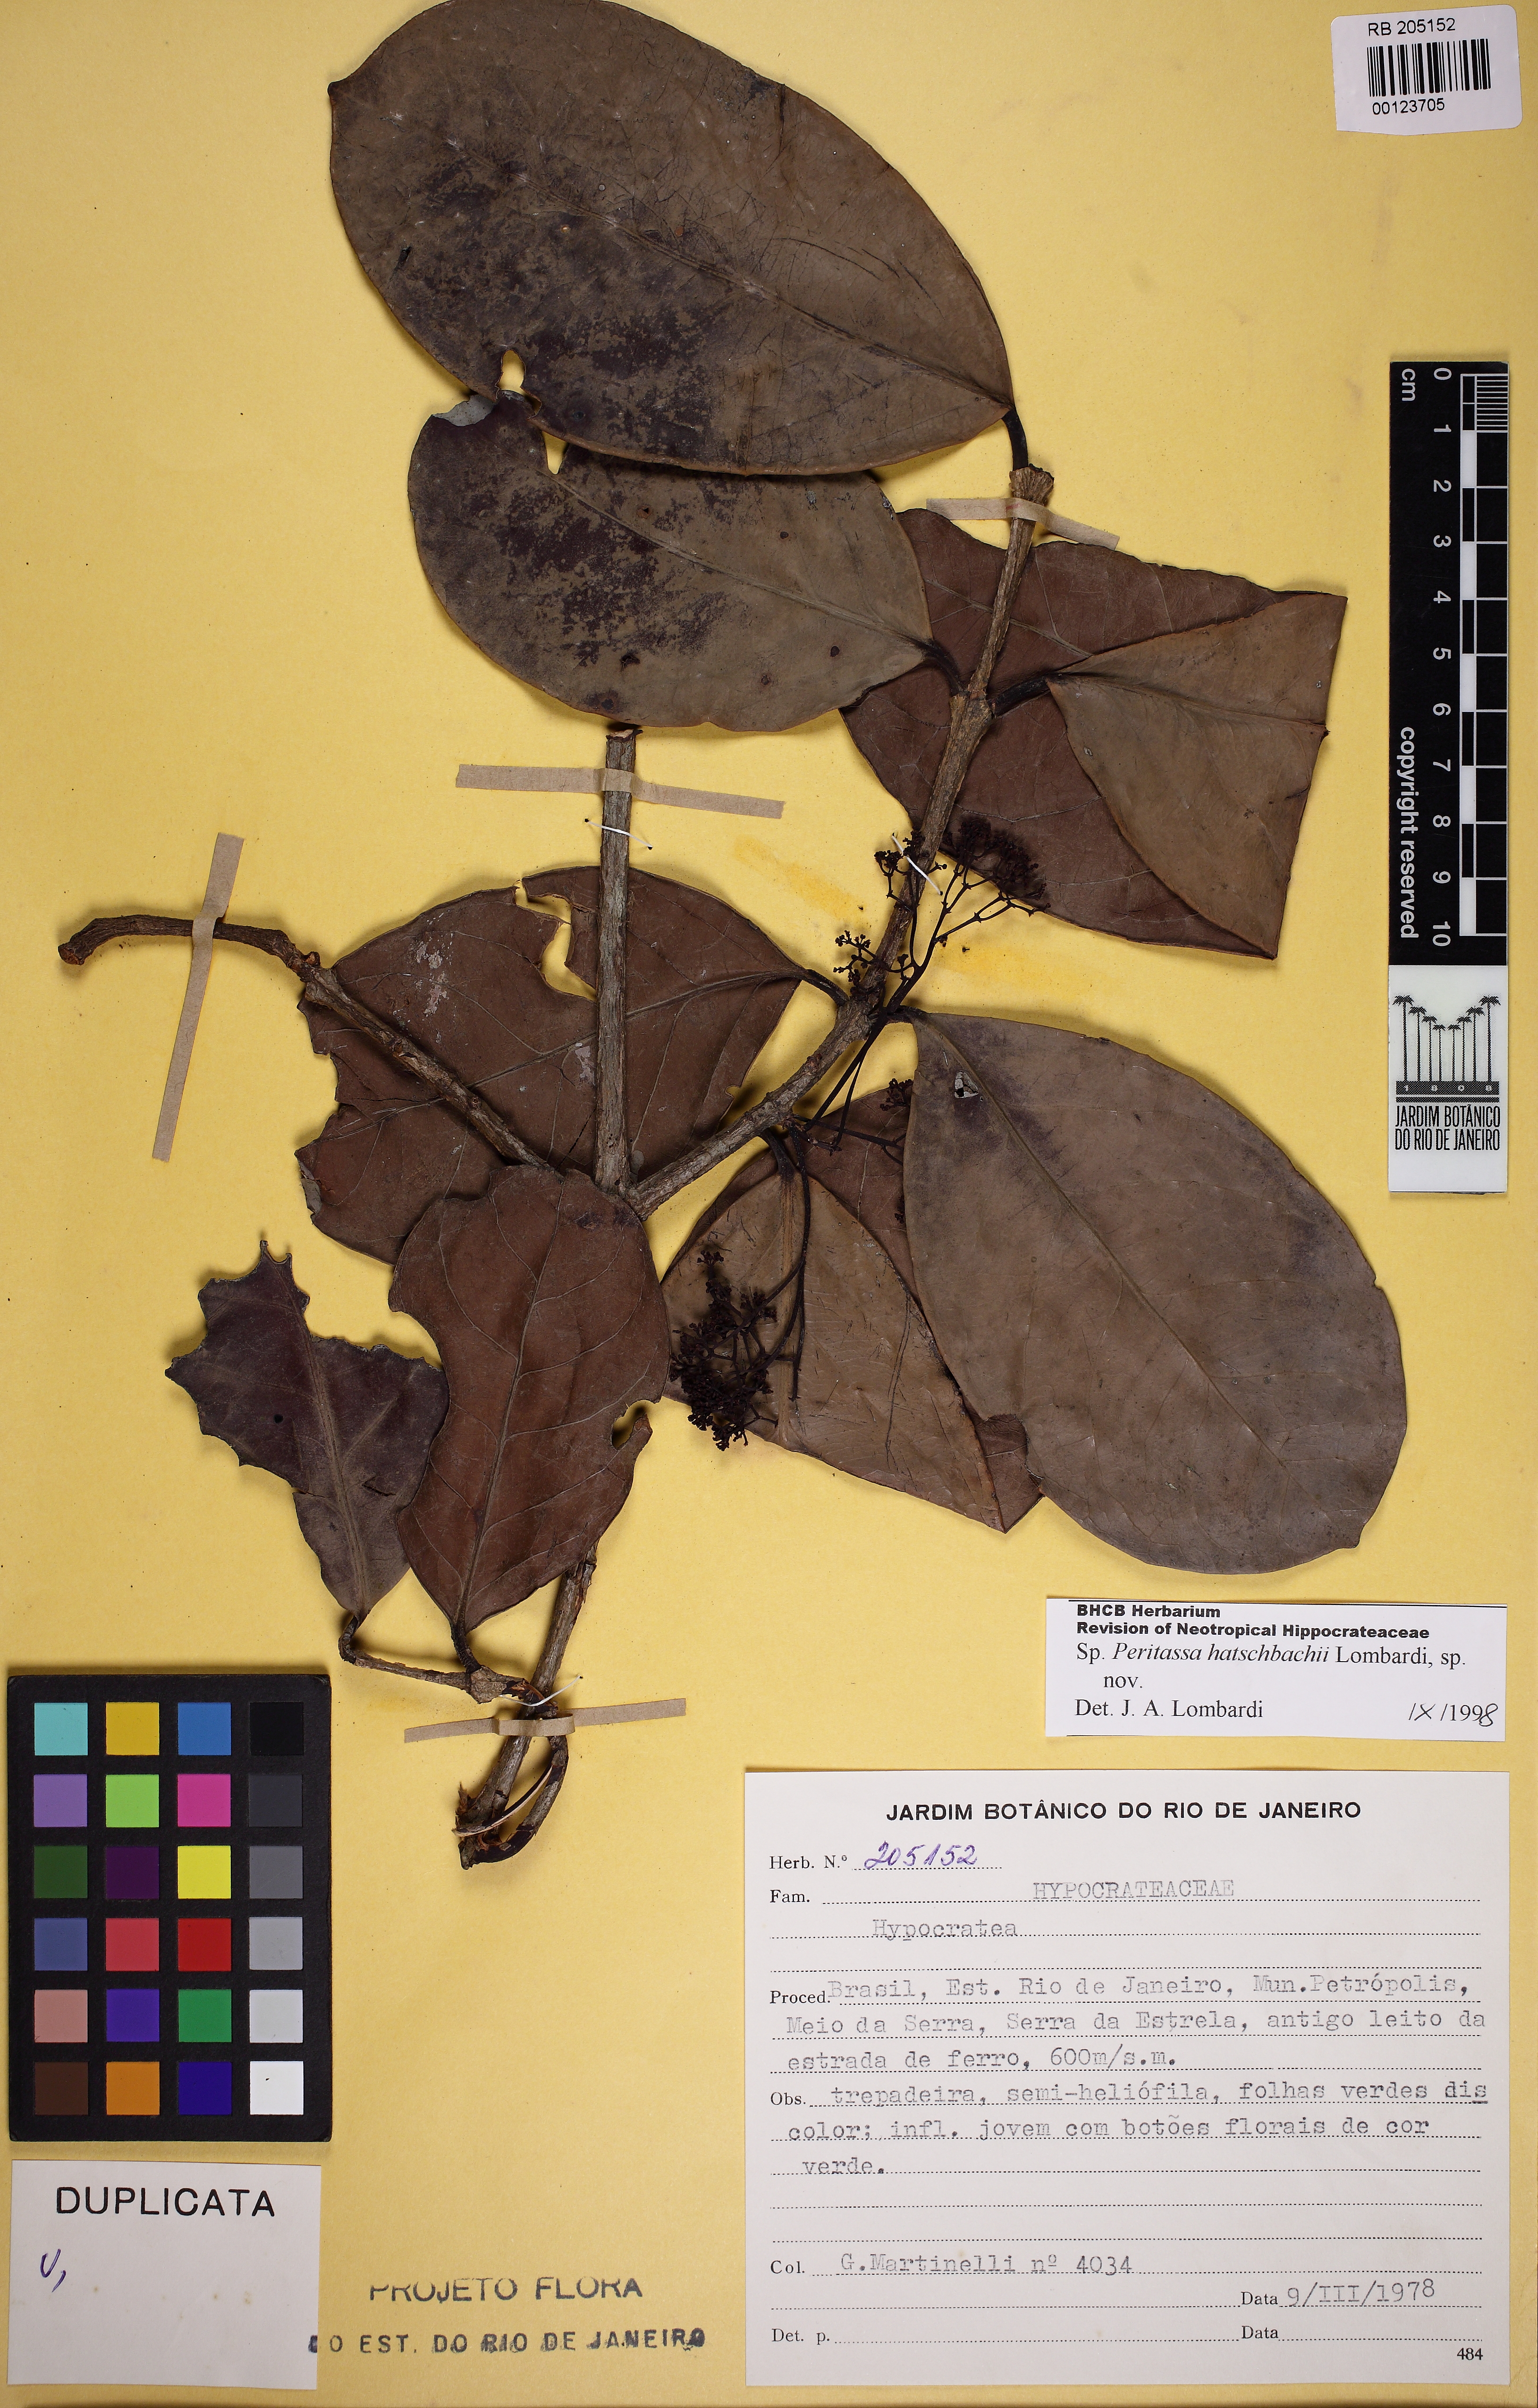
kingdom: Plantae
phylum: Tracheophyta
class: Magnoliopsida
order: Celastrales
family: Celastraceae
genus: Peritassa
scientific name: Peritassa hatschbachii
